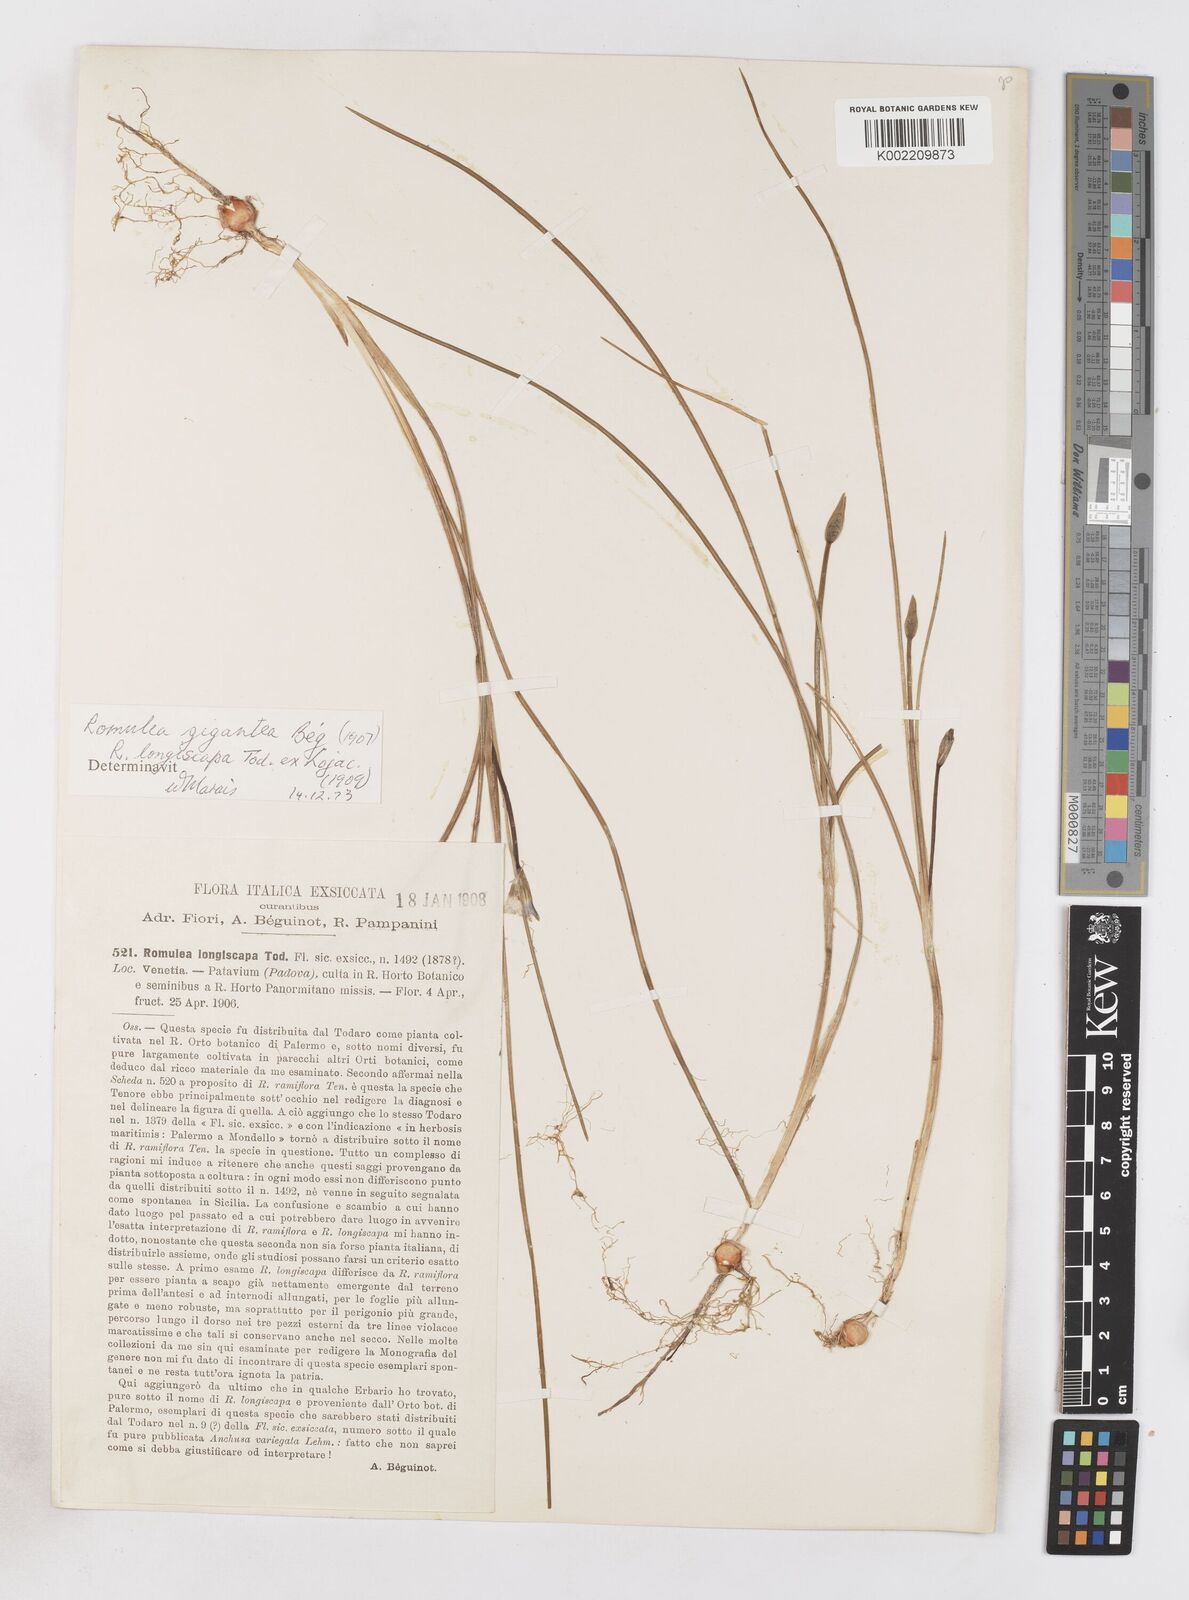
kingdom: Plantae
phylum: Tracheophyta
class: Liliopsida
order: Asparagales
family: Iridaceae
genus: Romulea
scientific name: Romulea gigantea
